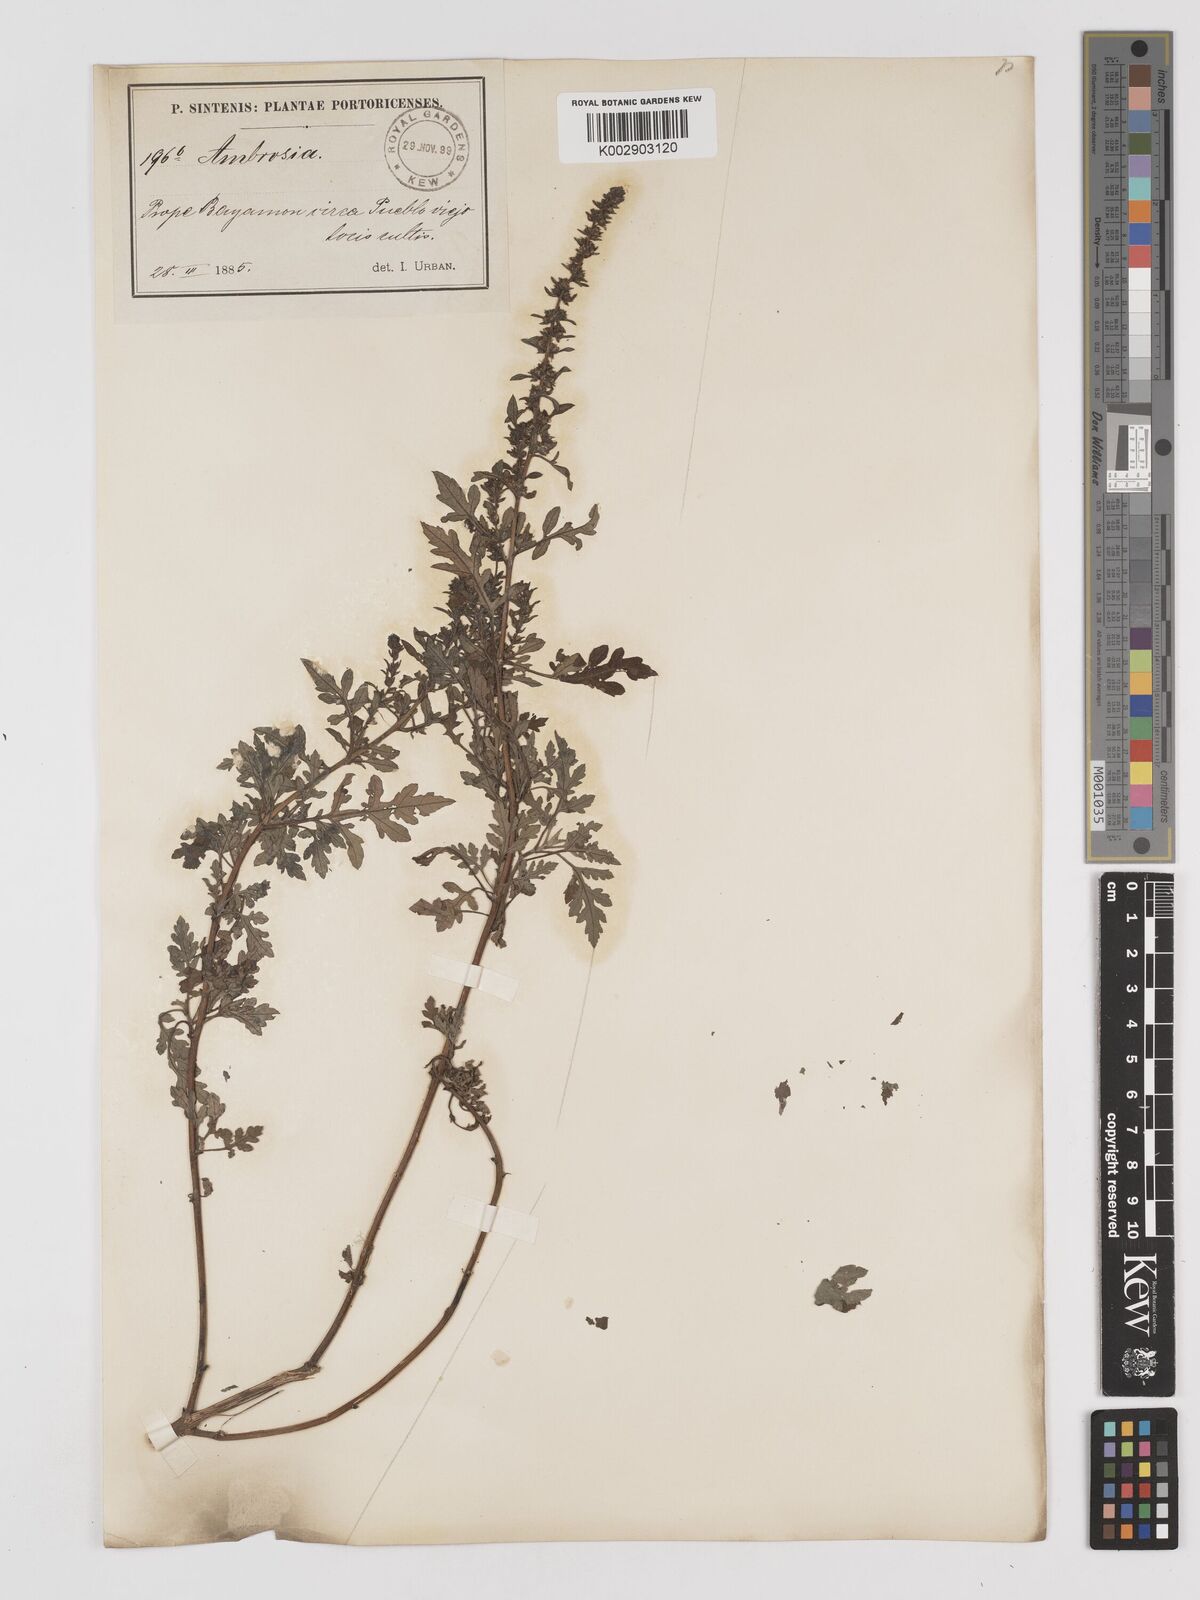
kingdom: Plantae
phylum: Tracheophyta
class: Magnoliopsida
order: Asterales
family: Asteraceae
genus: Ambrosia
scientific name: Ambrosia artemisiifolia
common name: Annual ragweed
